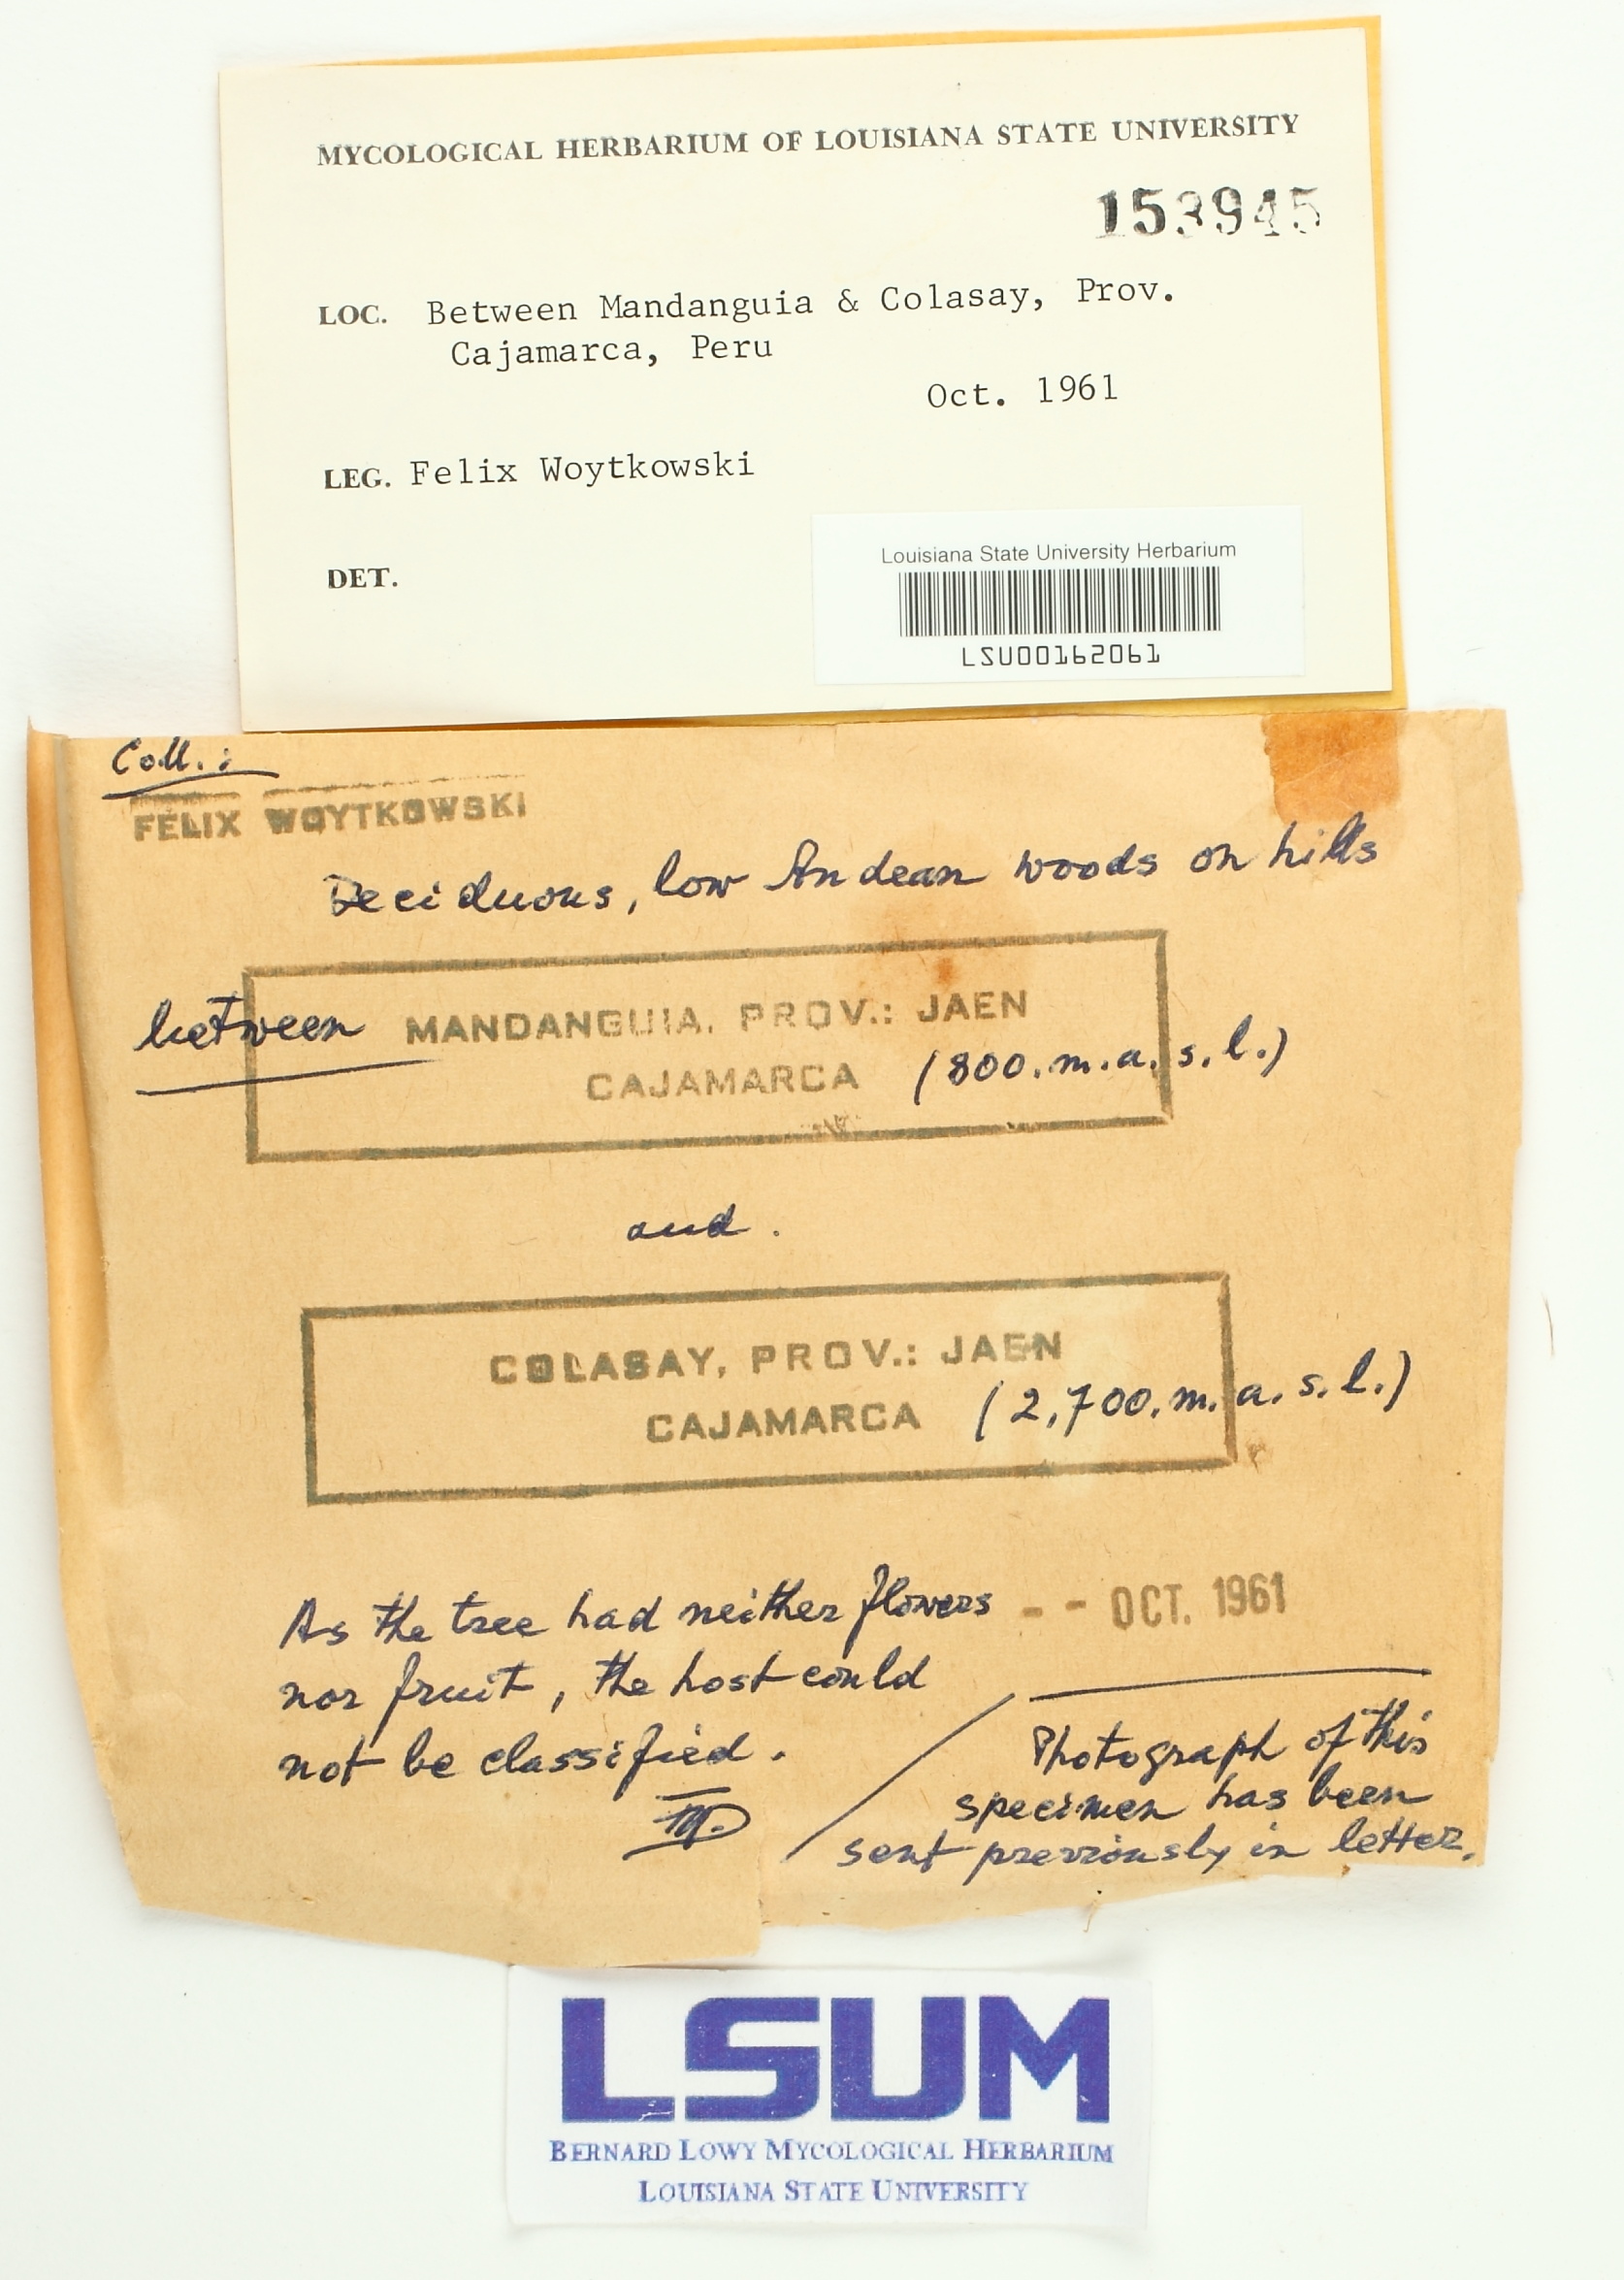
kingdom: Fungi
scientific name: Fungi
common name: Fungi
